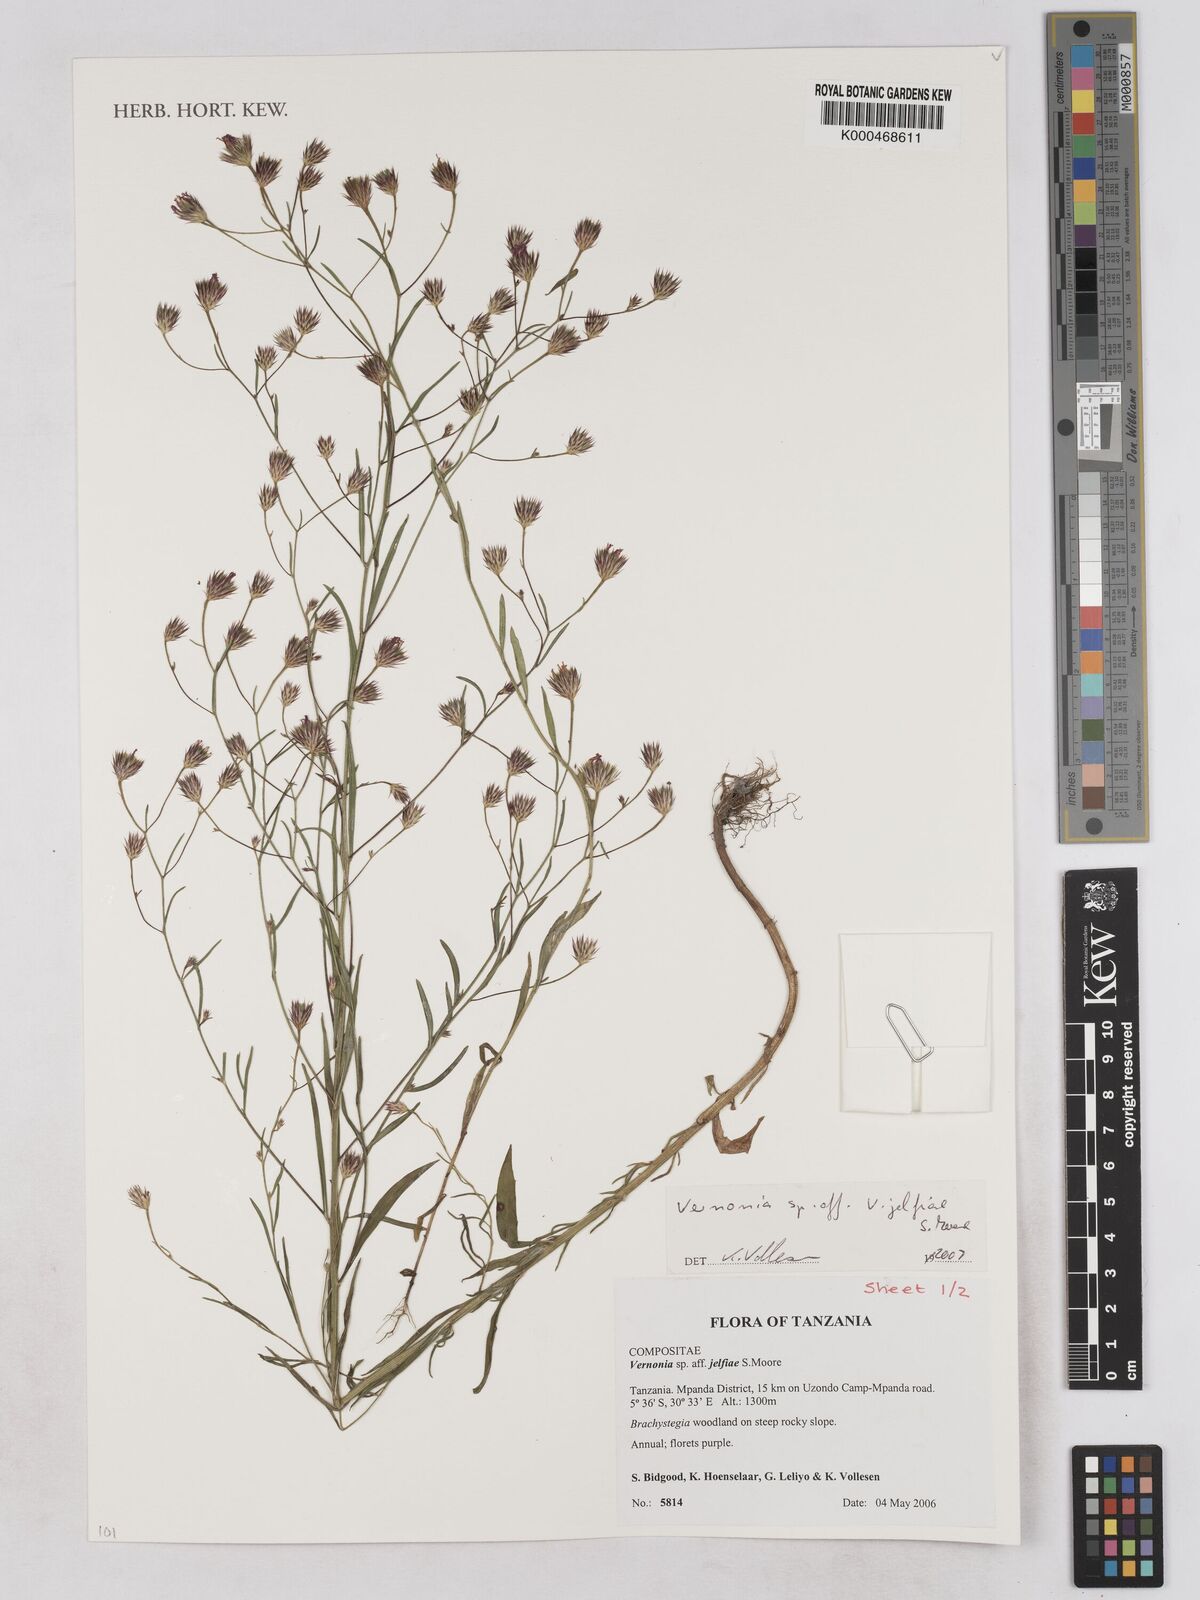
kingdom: Plantae
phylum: Tracheophyta
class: Magnoliopsida
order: Asterales
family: Asteraceae
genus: Vernonia
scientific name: Vernonia
